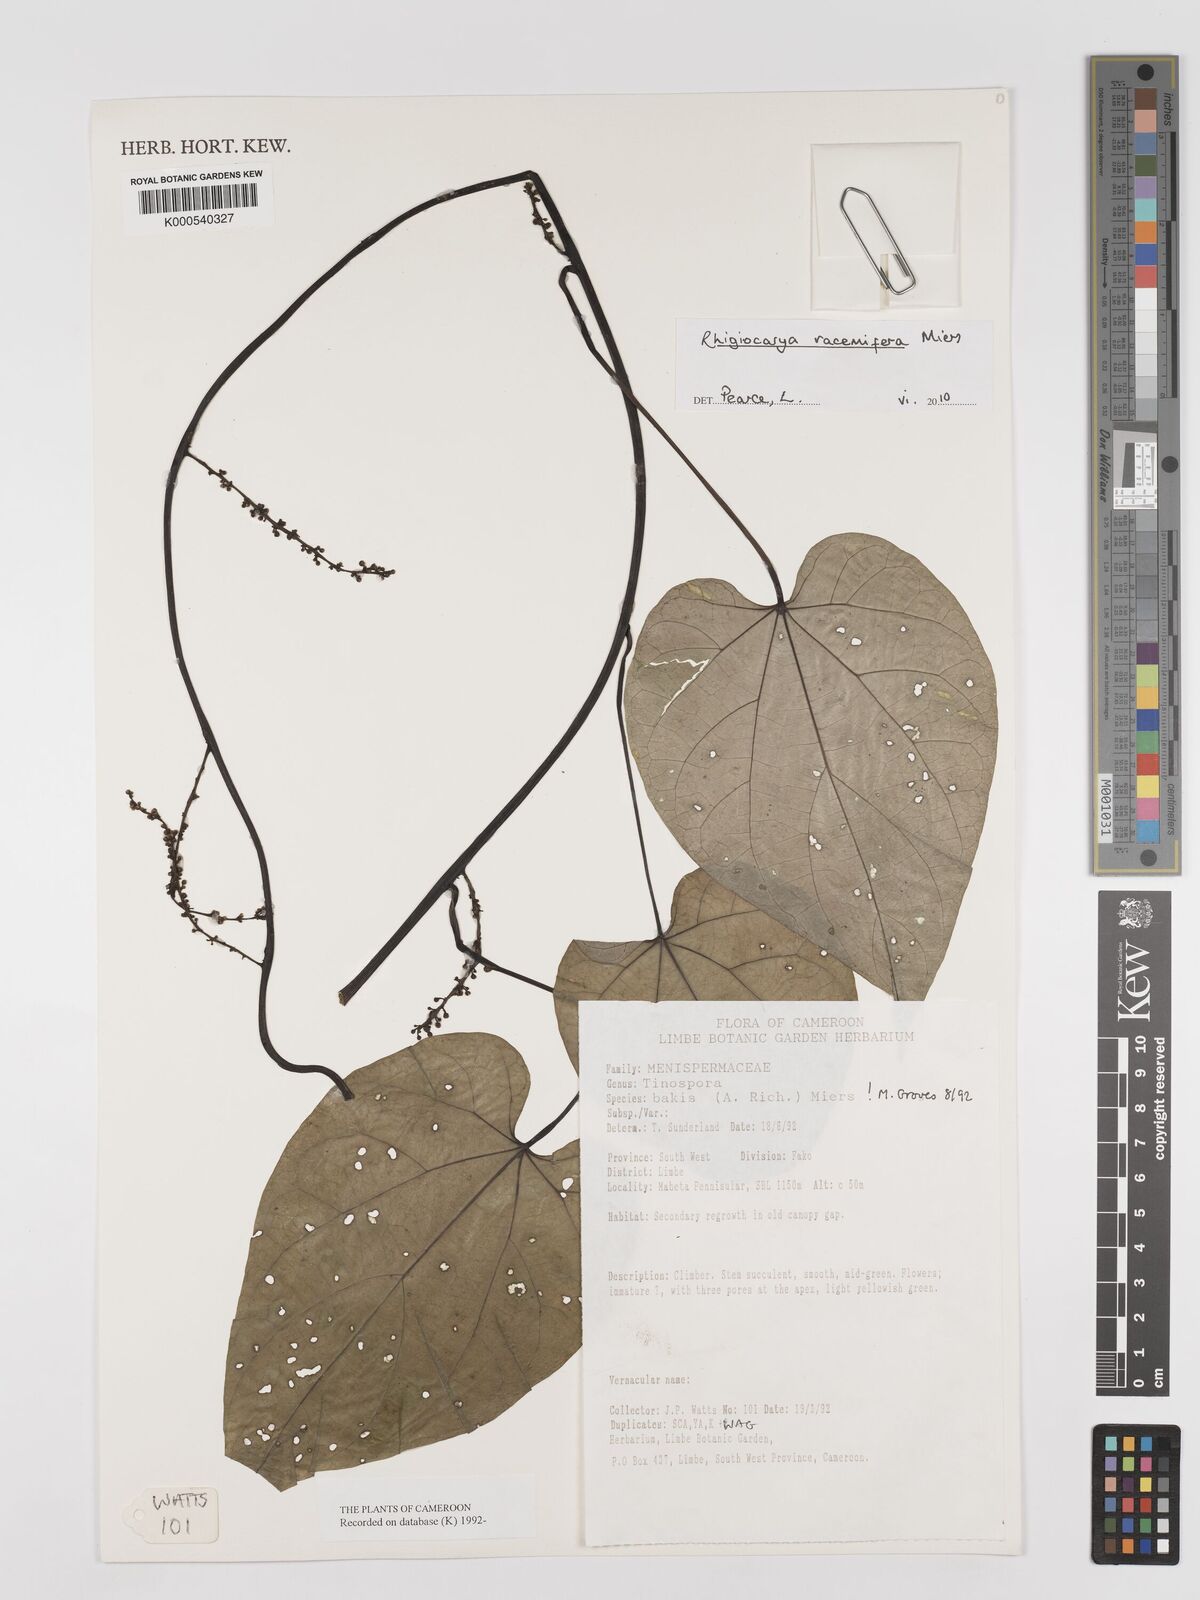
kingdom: Plantae
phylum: Tracheophyta
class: Magnoliopsida
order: Ranunculales
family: Menispermaceae
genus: Rhigiocarya
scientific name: Rhigiocarya racemifera
